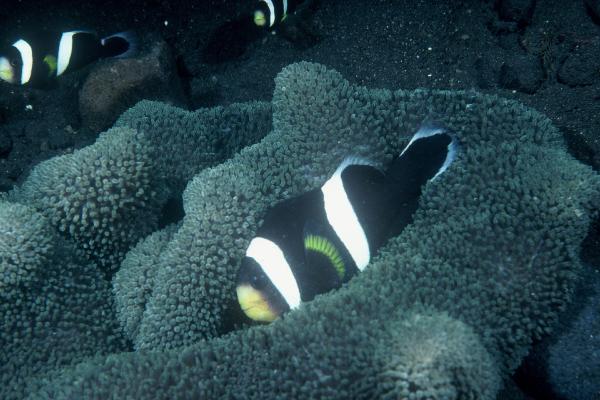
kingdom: Animalia
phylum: Chordata
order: Perciformes
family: Pomacentridae
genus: Amphiprion
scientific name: Amphiprion polymnus
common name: Saddleback anemonefish
